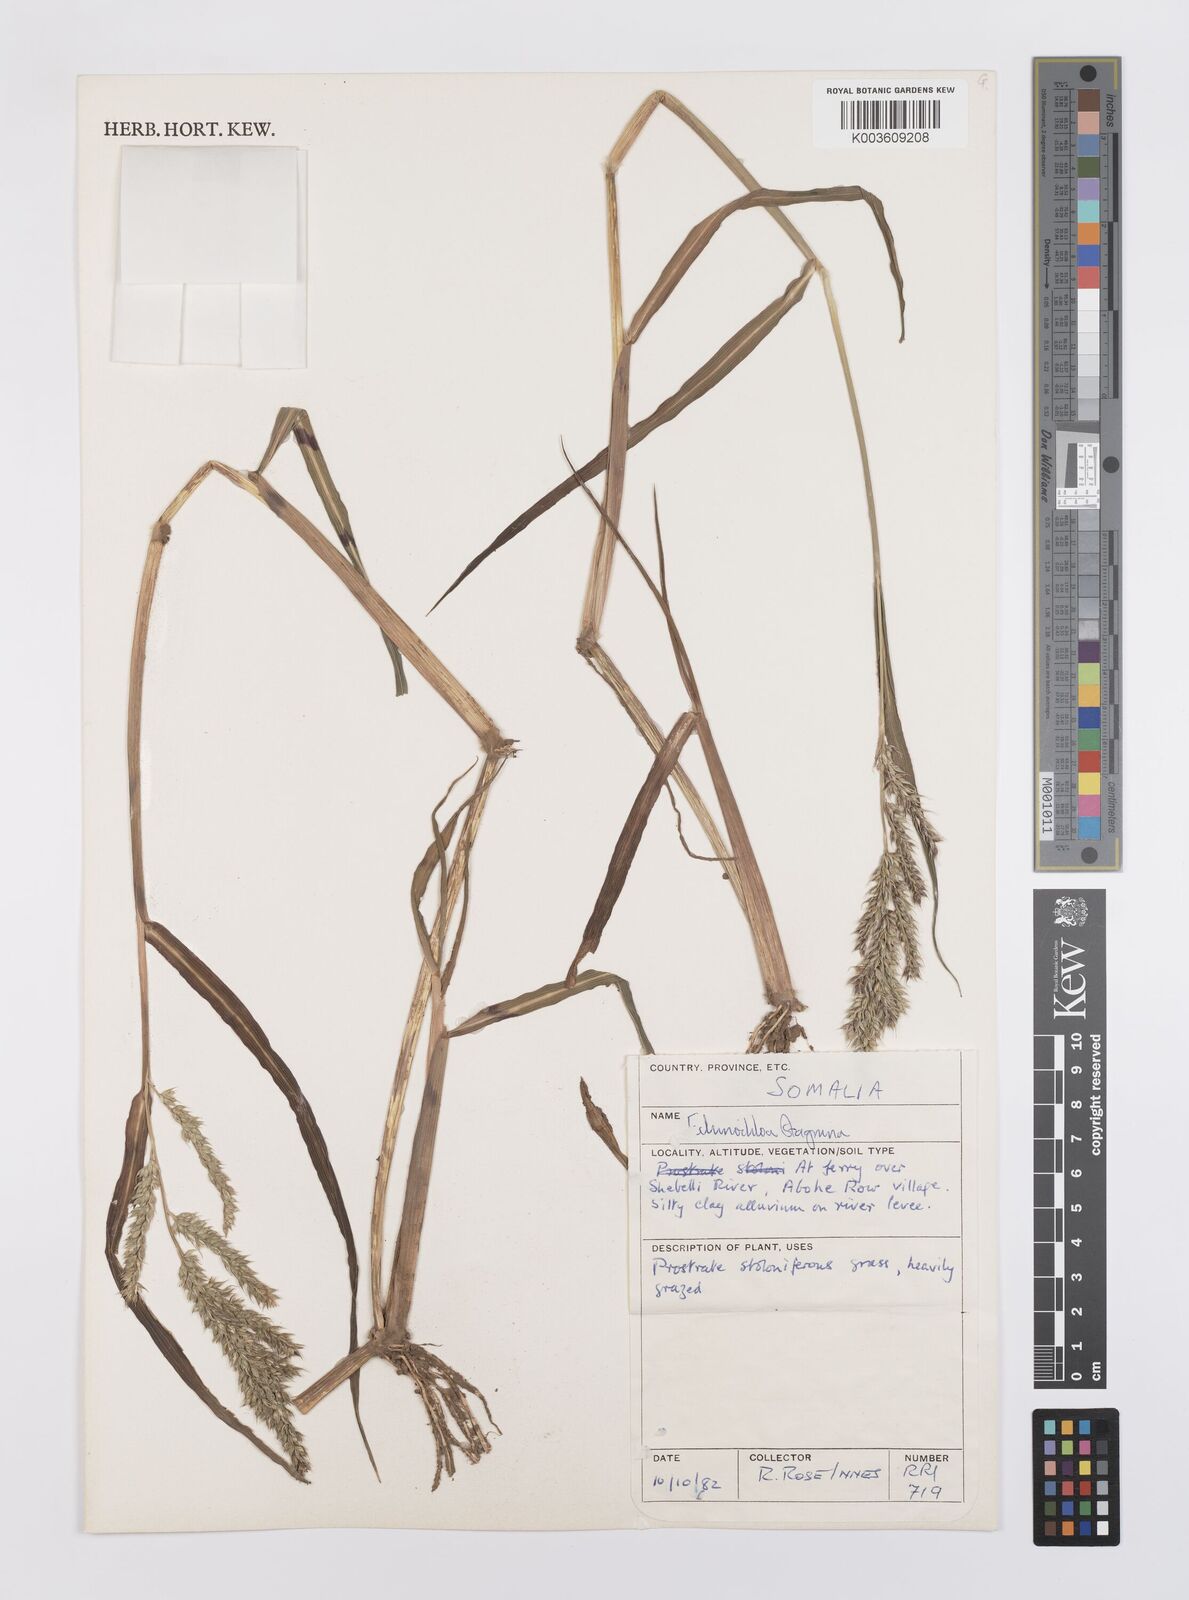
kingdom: Plantae
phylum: Tracheophyta
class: Liliopsida
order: Poales
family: Poaceae
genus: Echinochloa
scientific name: Echinochloa stagnina
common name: Burgu grass
